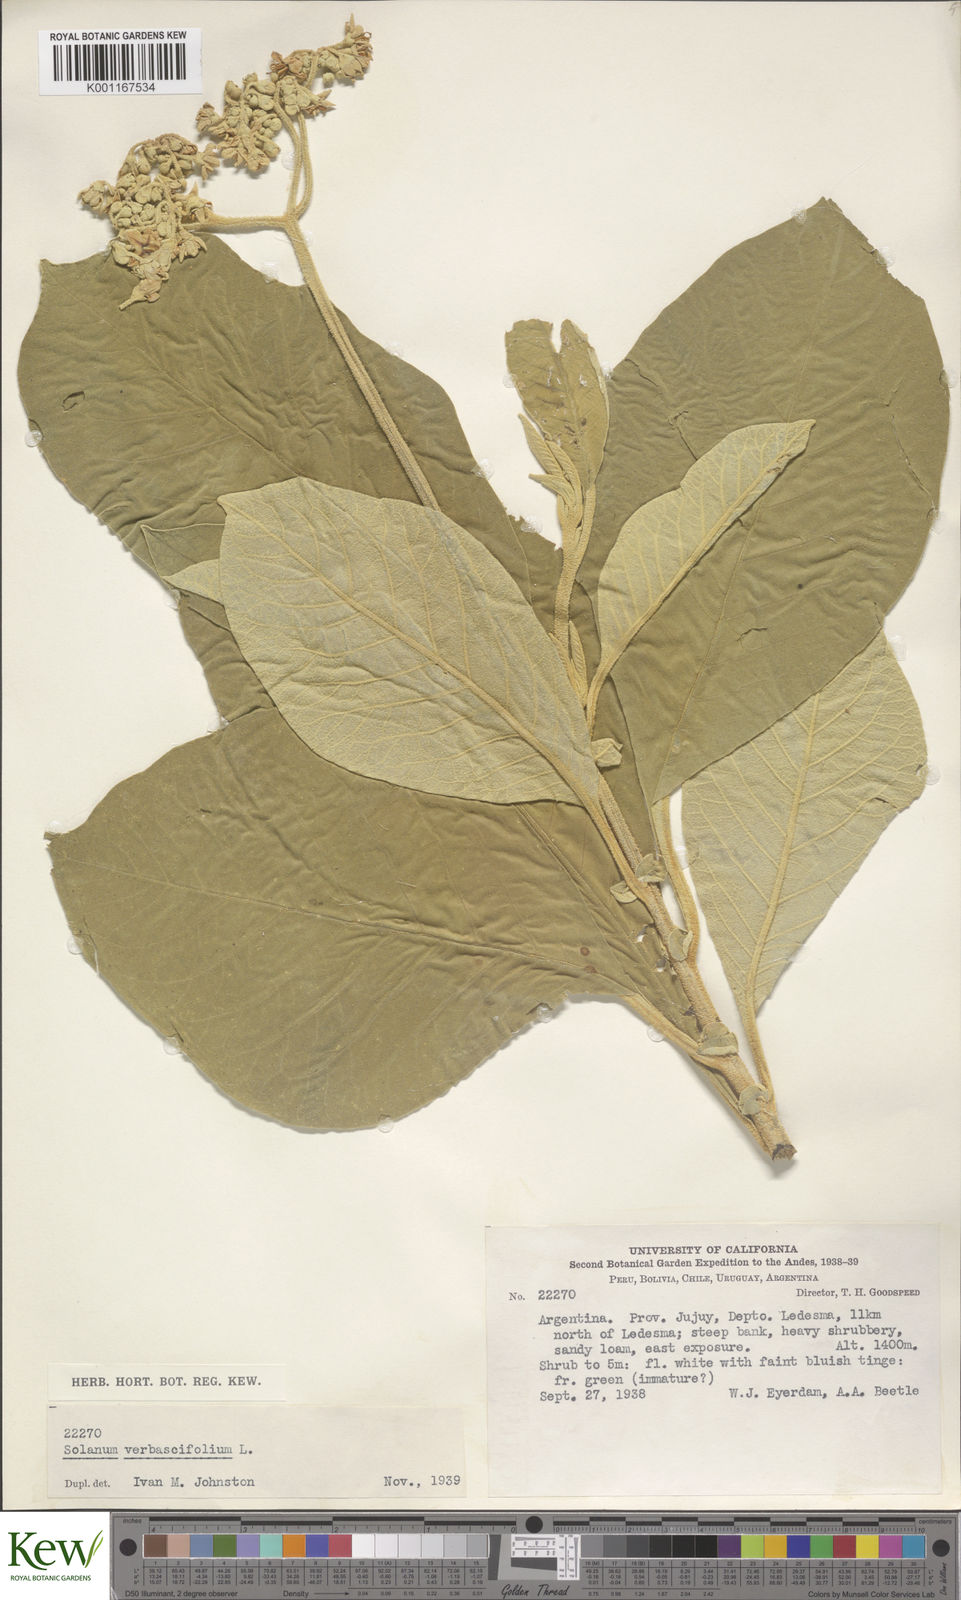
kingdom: Plantae
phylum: Tracheophyta
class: Magnoliopsida
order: Solanales
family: Solanaceae
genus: Solanum
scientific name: Solanum erianthum
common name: Tobacco-tree
